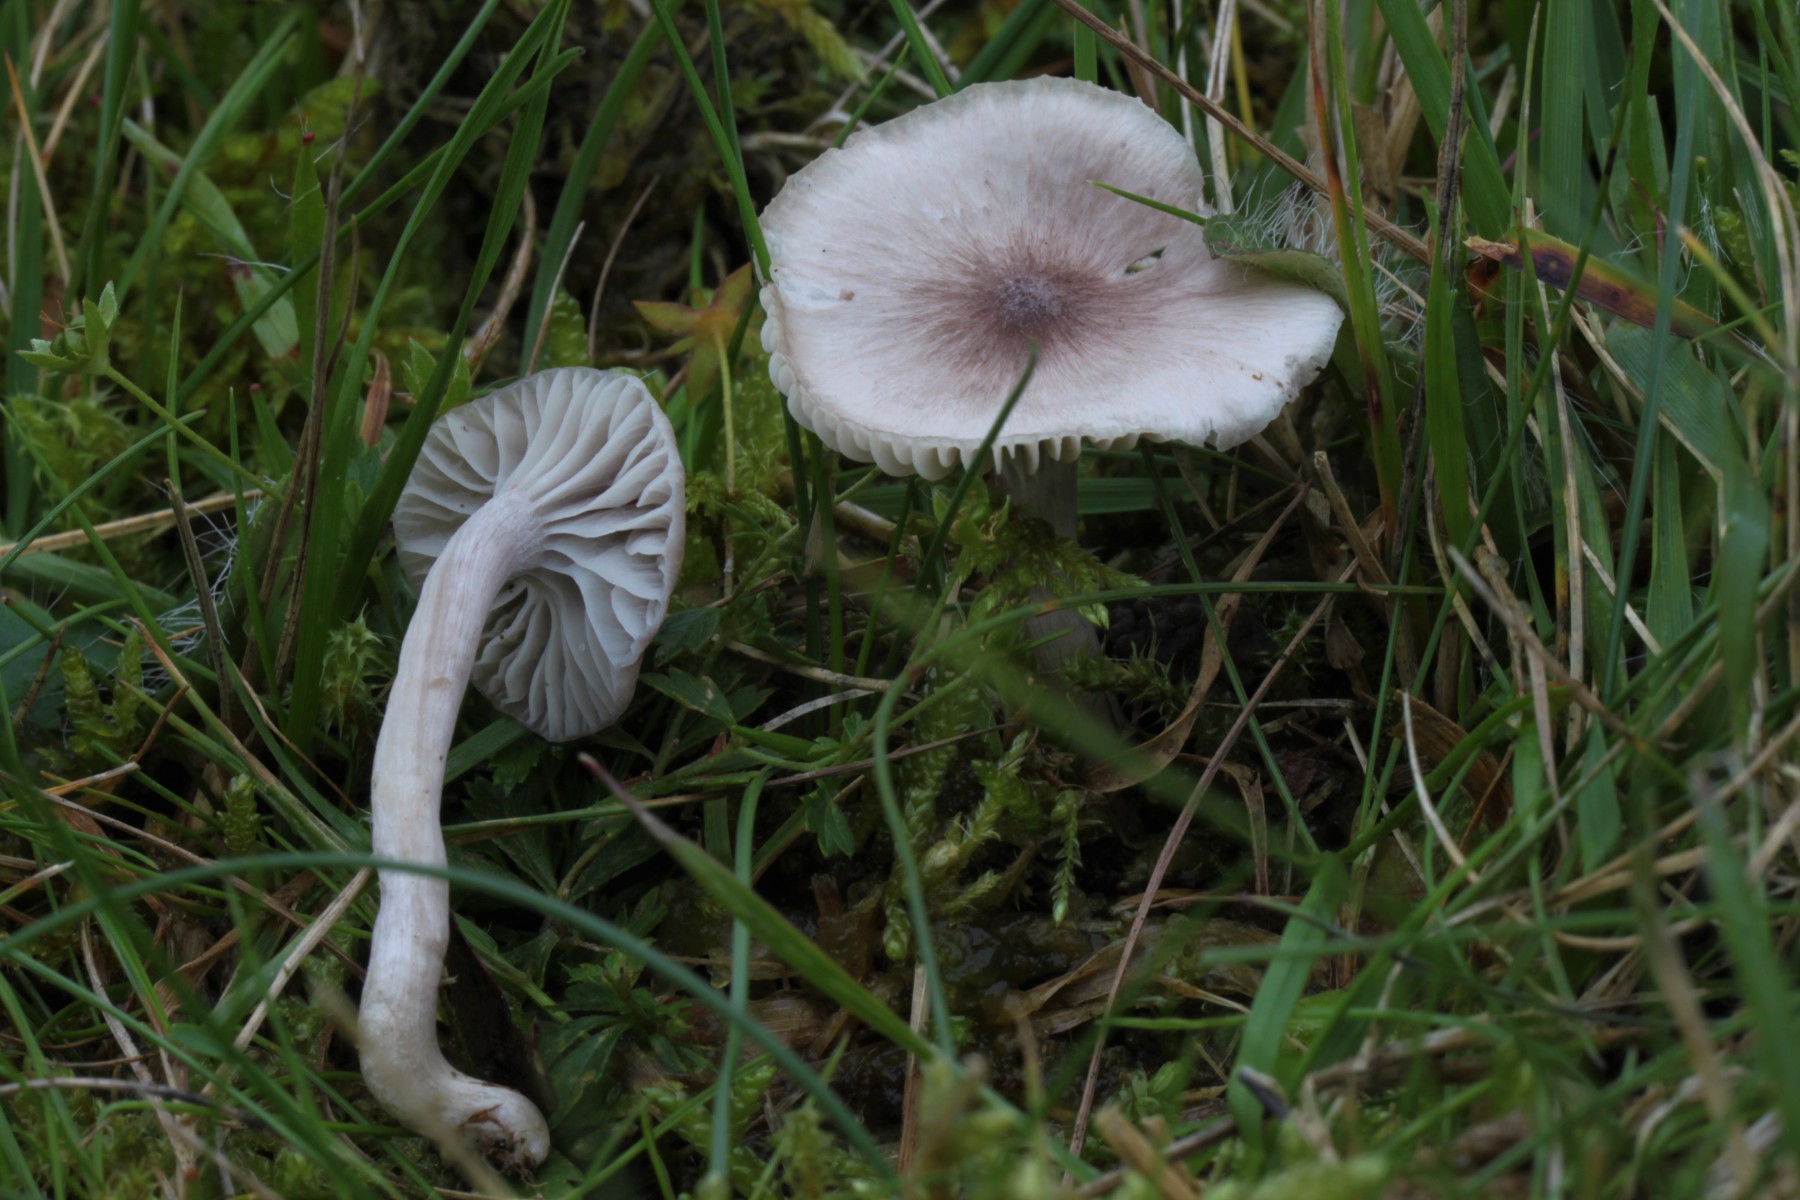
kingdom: Fungi
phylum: Basidiomycota
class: Agaricomycetes
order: Agaricales
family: Hygrophoraceae
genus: Cuphophyllus
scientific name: Cuphophyllus
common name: vokshat
